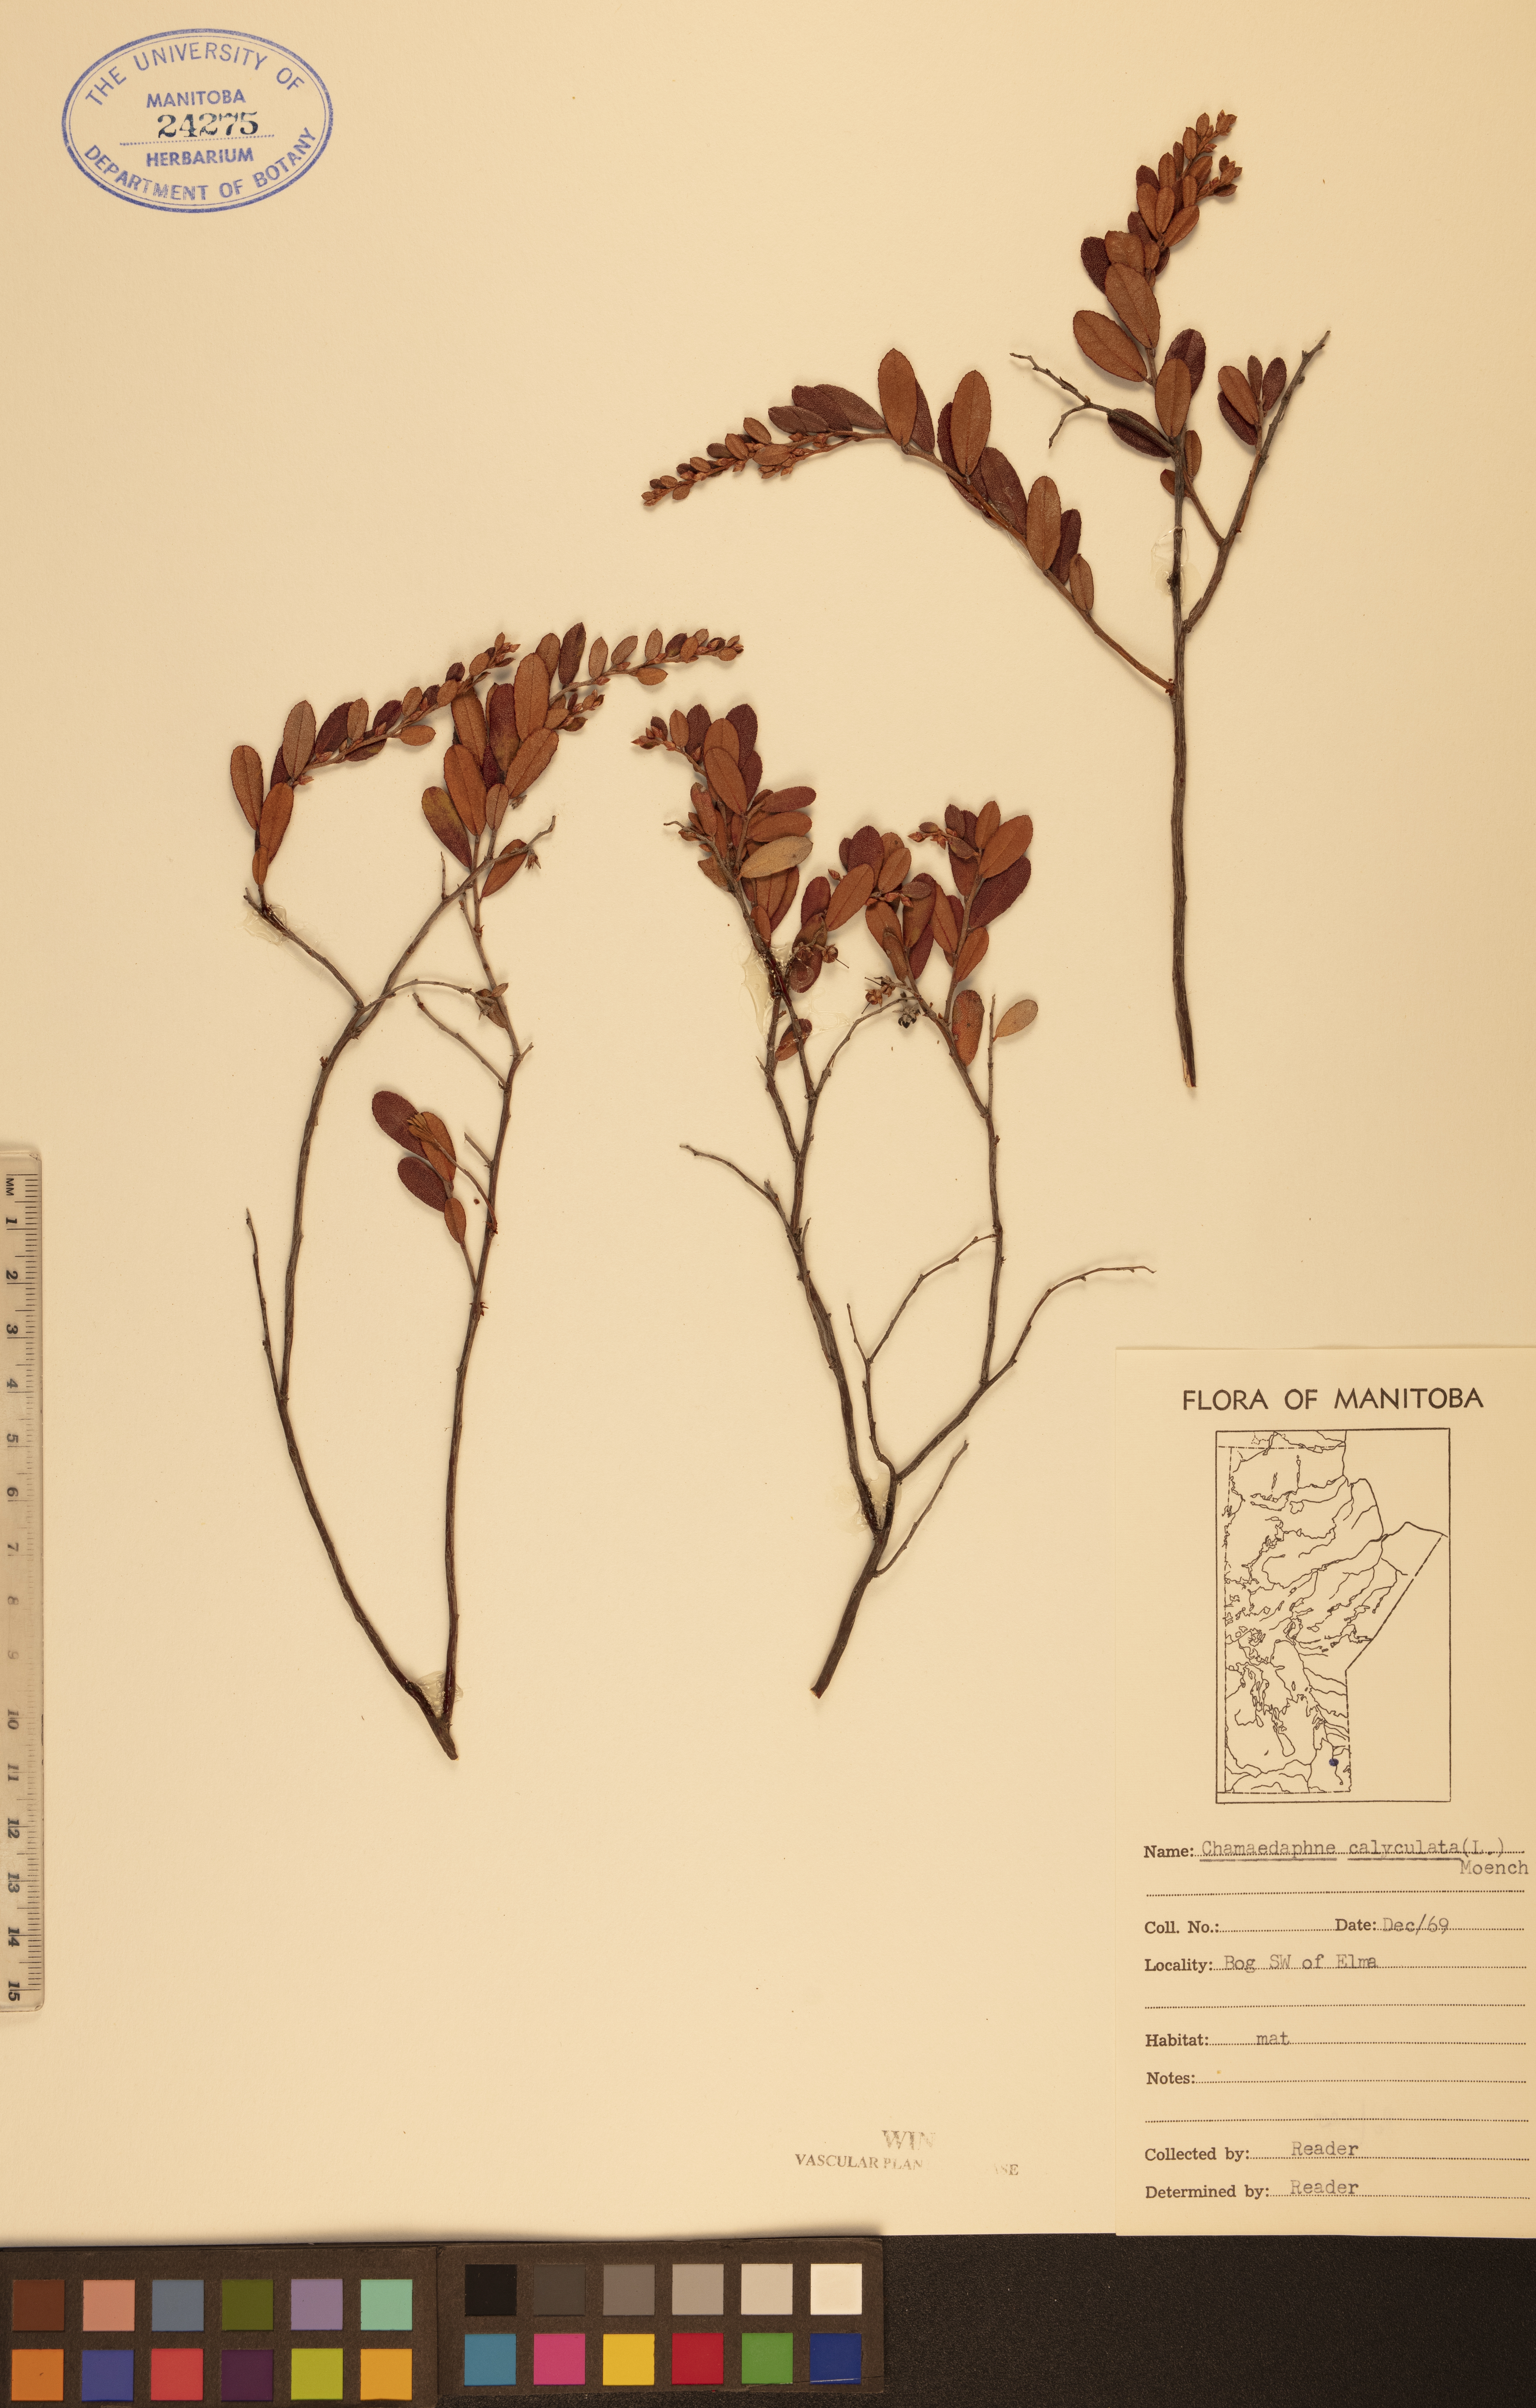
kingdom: Plantae
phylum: Tracheophyta
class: Magnoliopsida
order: Ericales
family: Ericaceae
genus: Chamaedaphne
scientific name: Chamaedaphne calyculata
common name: Leatherleaf
